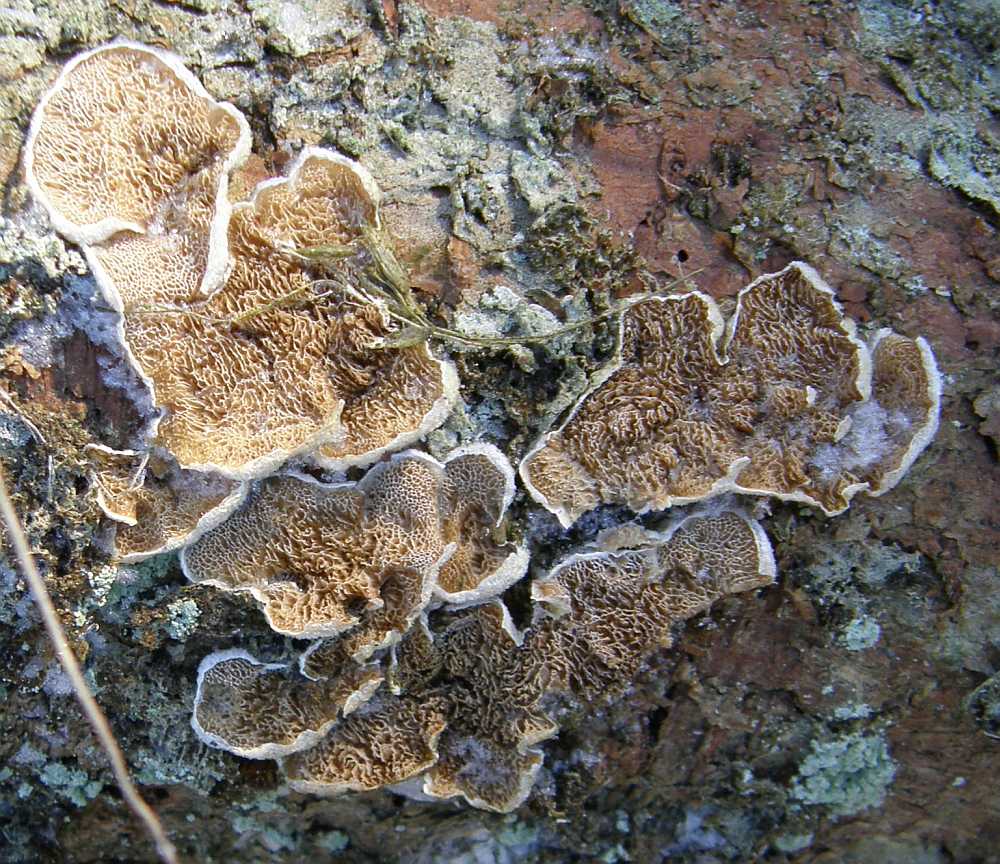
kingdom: Fungi
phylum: Basidiomycota
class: Agaricomycetes
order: Polyporales
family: Incrustoporiaceae
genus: Skeletocutis
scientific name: Skeletocutis carneogrisea
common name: rødgrå krystalporesvamp
